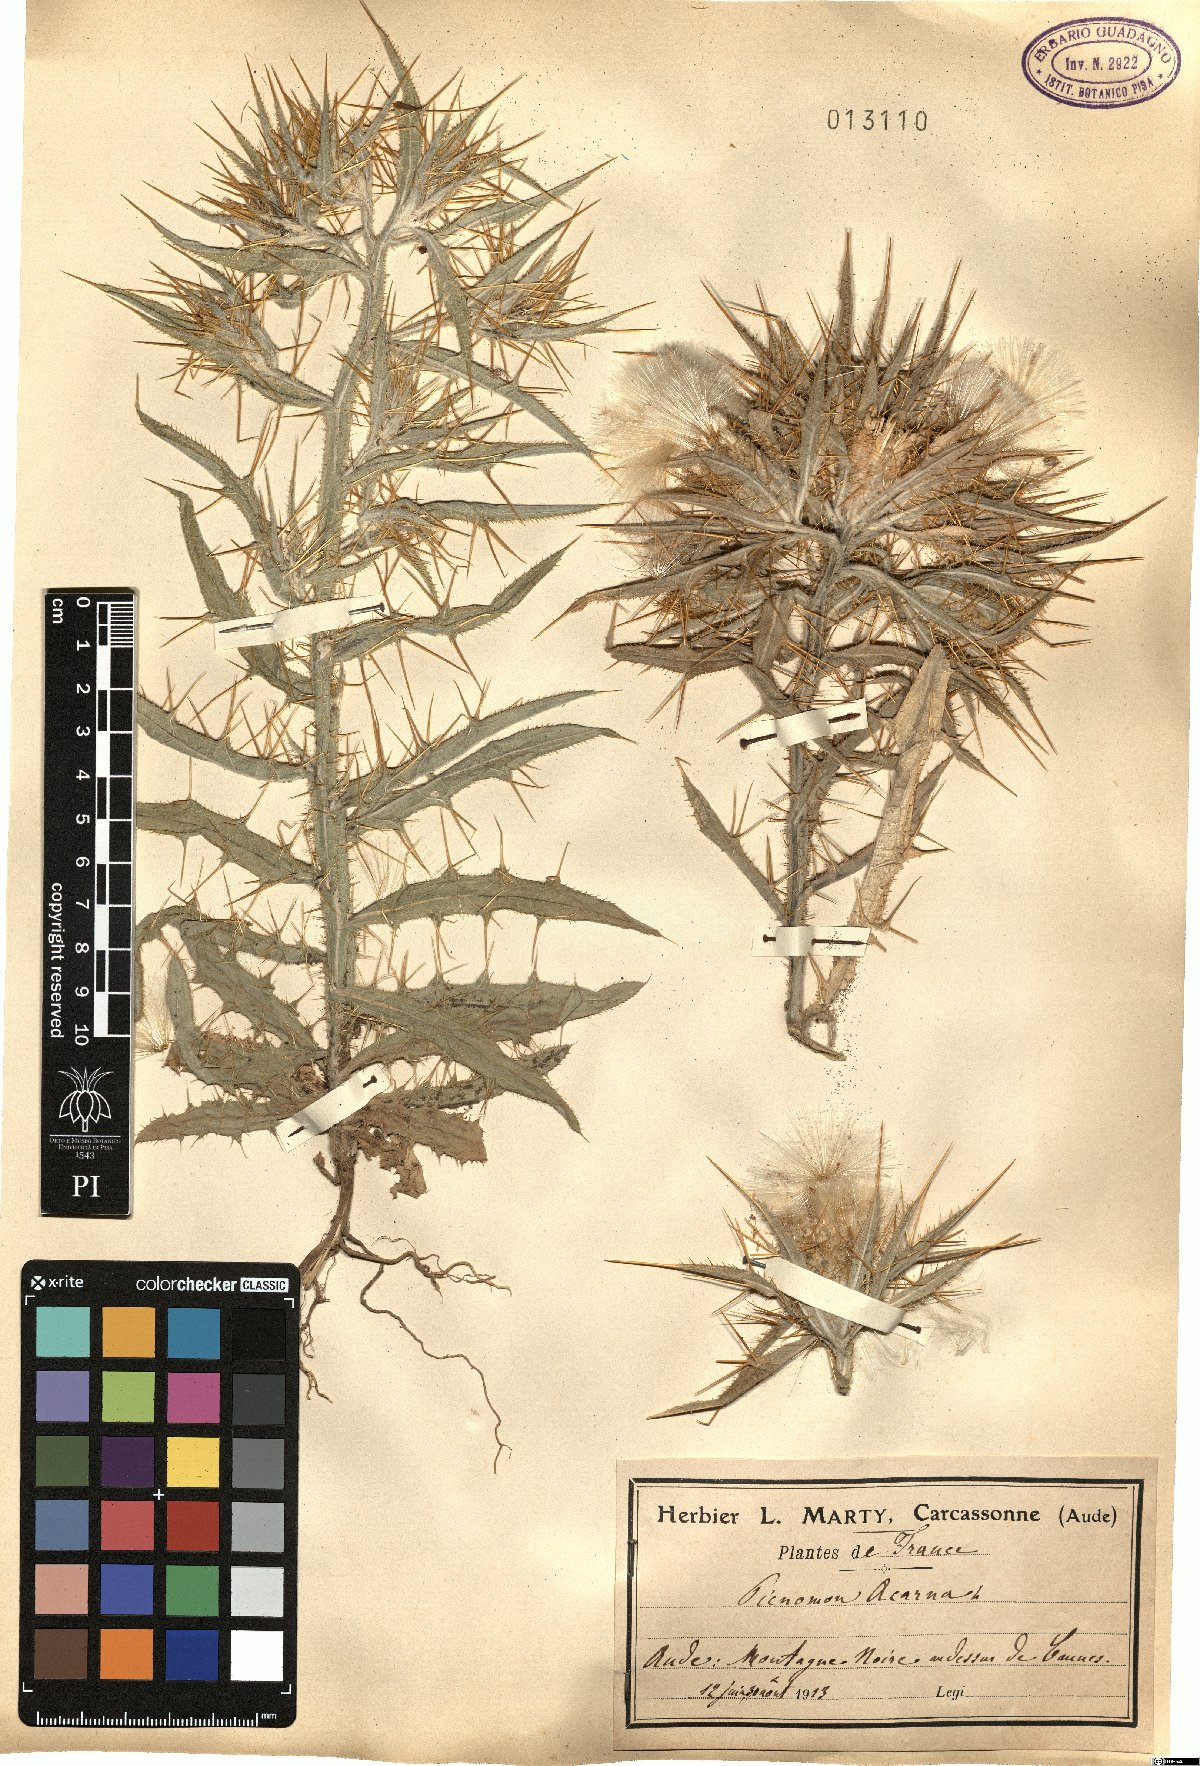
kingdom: Plantae
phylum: Tracheophyta
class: Magnoliopsida
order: Asterales
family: Asteraceae
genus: Picnomon
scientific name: Picnomon acarna
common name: Soldier thistle
